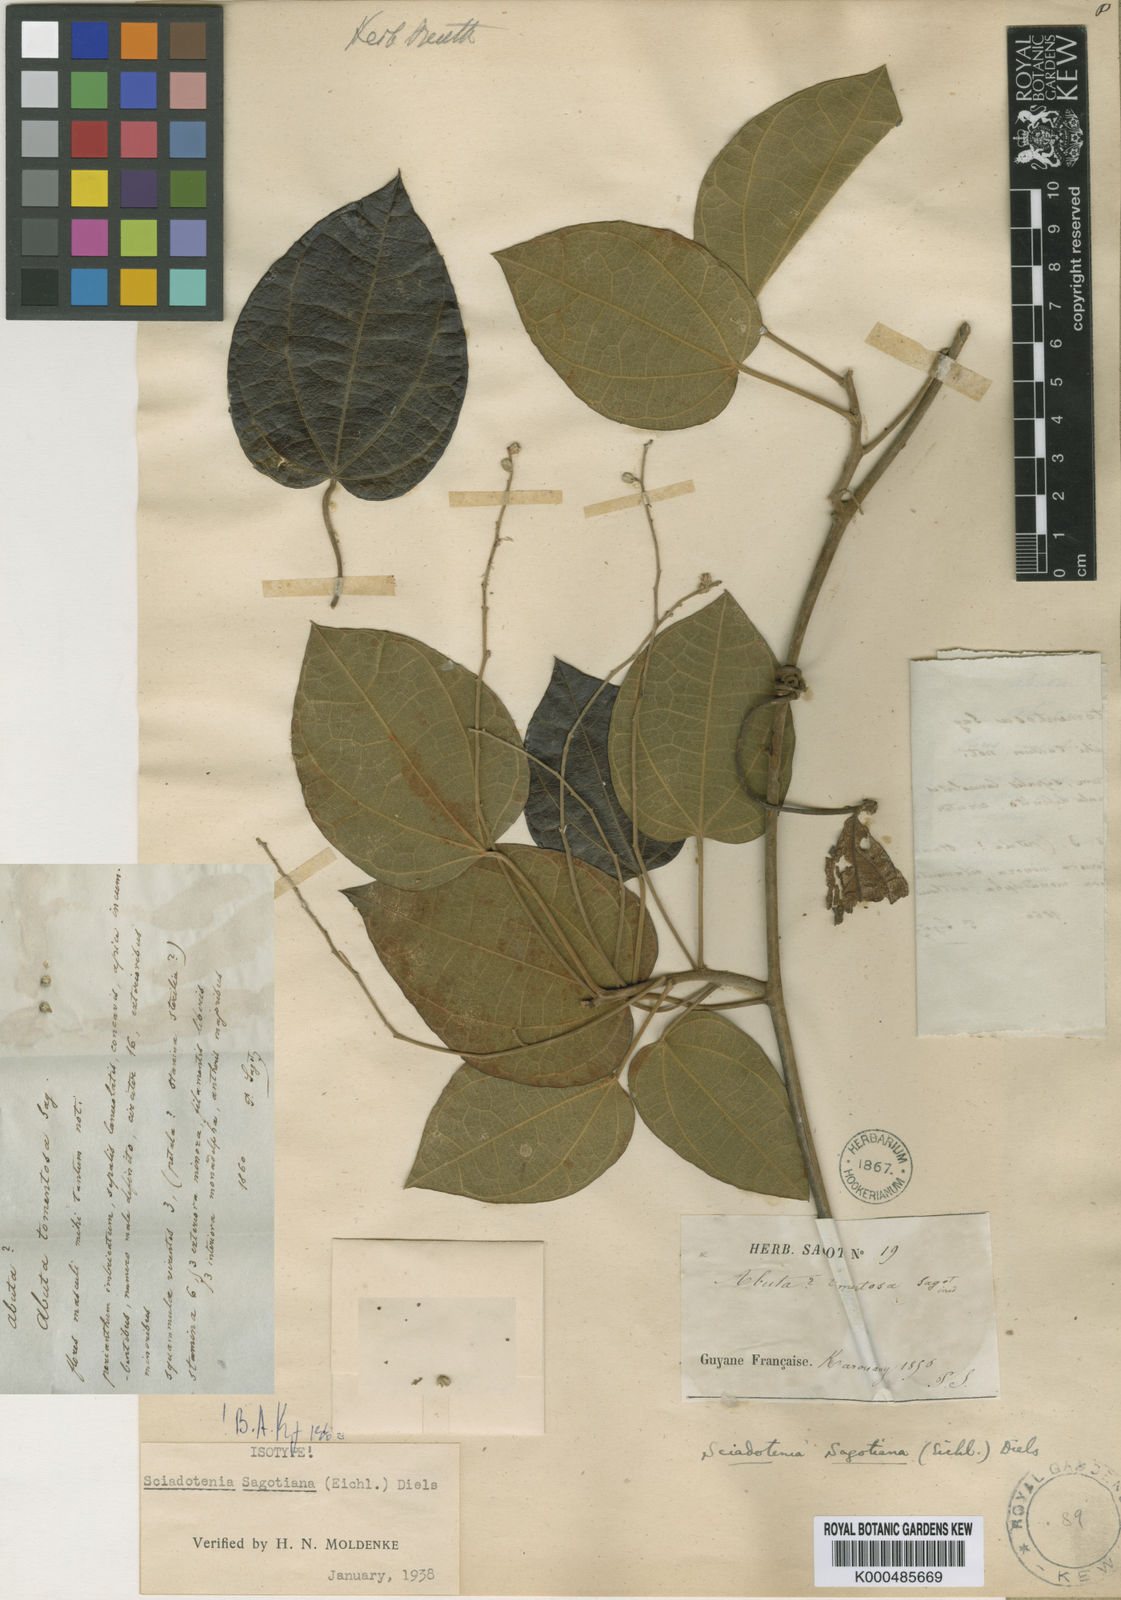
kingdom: Plantae
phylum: Tracheophyta
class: Magnoliopsida
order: Ranunculales
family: Menispermaceae
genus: Sciadotenia
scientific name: Sciadotenia sagotiana
